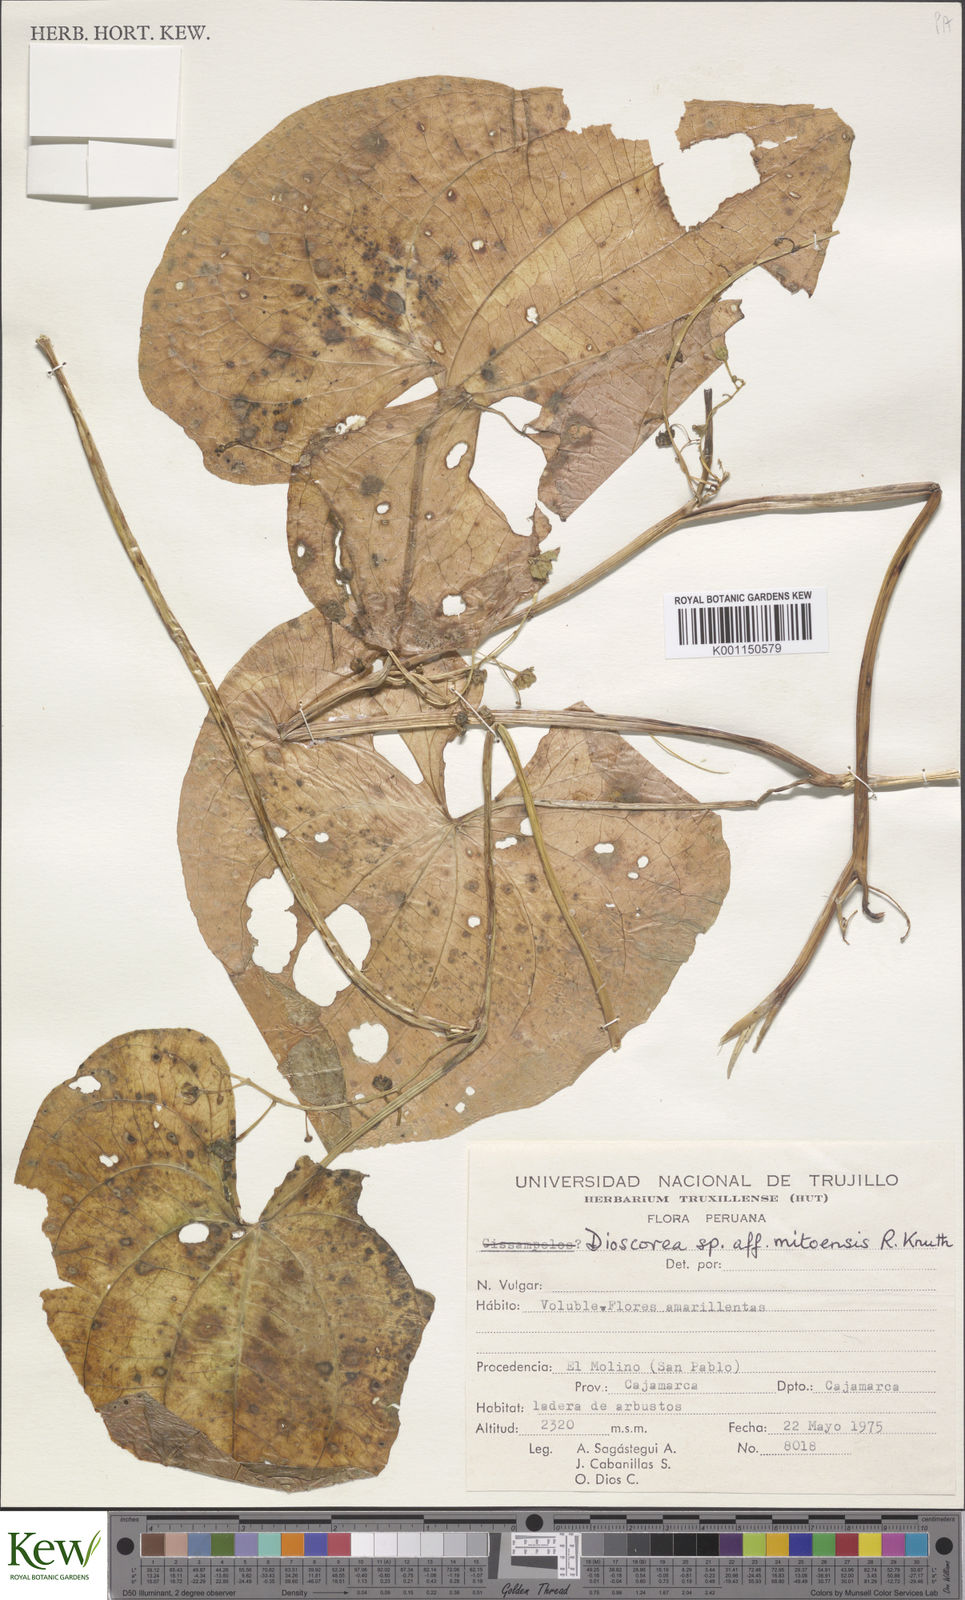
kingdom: Plantae
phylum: Tracheophyta
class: Liliopsida
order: Dioscoreales
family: Dioscoreaceae
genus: Dioscorea
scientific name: Dioscorea polygonoides
